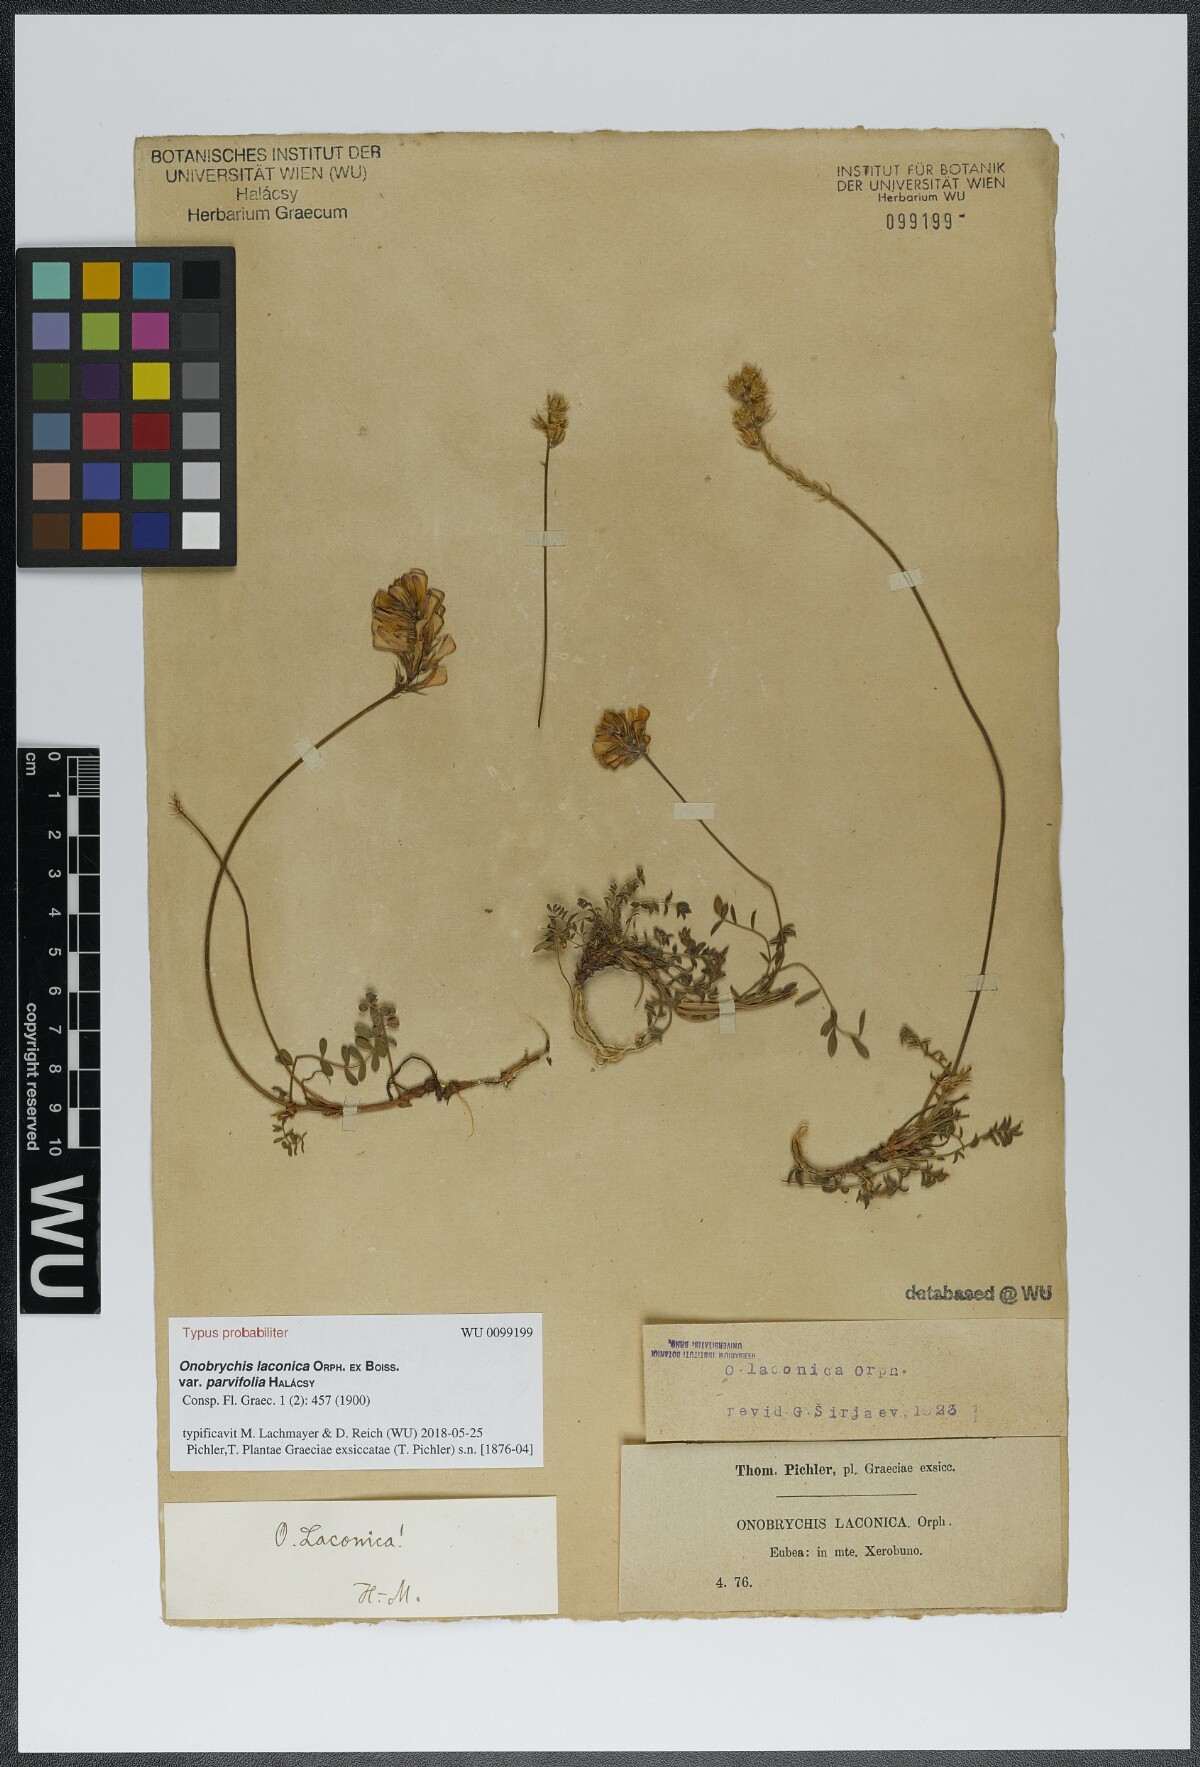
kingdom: Plantae
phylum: Tracheophyta
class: Magnoliopsida
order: Fabales
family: Fabaceae
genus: Onobrychis
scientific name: Onobrychis alba
